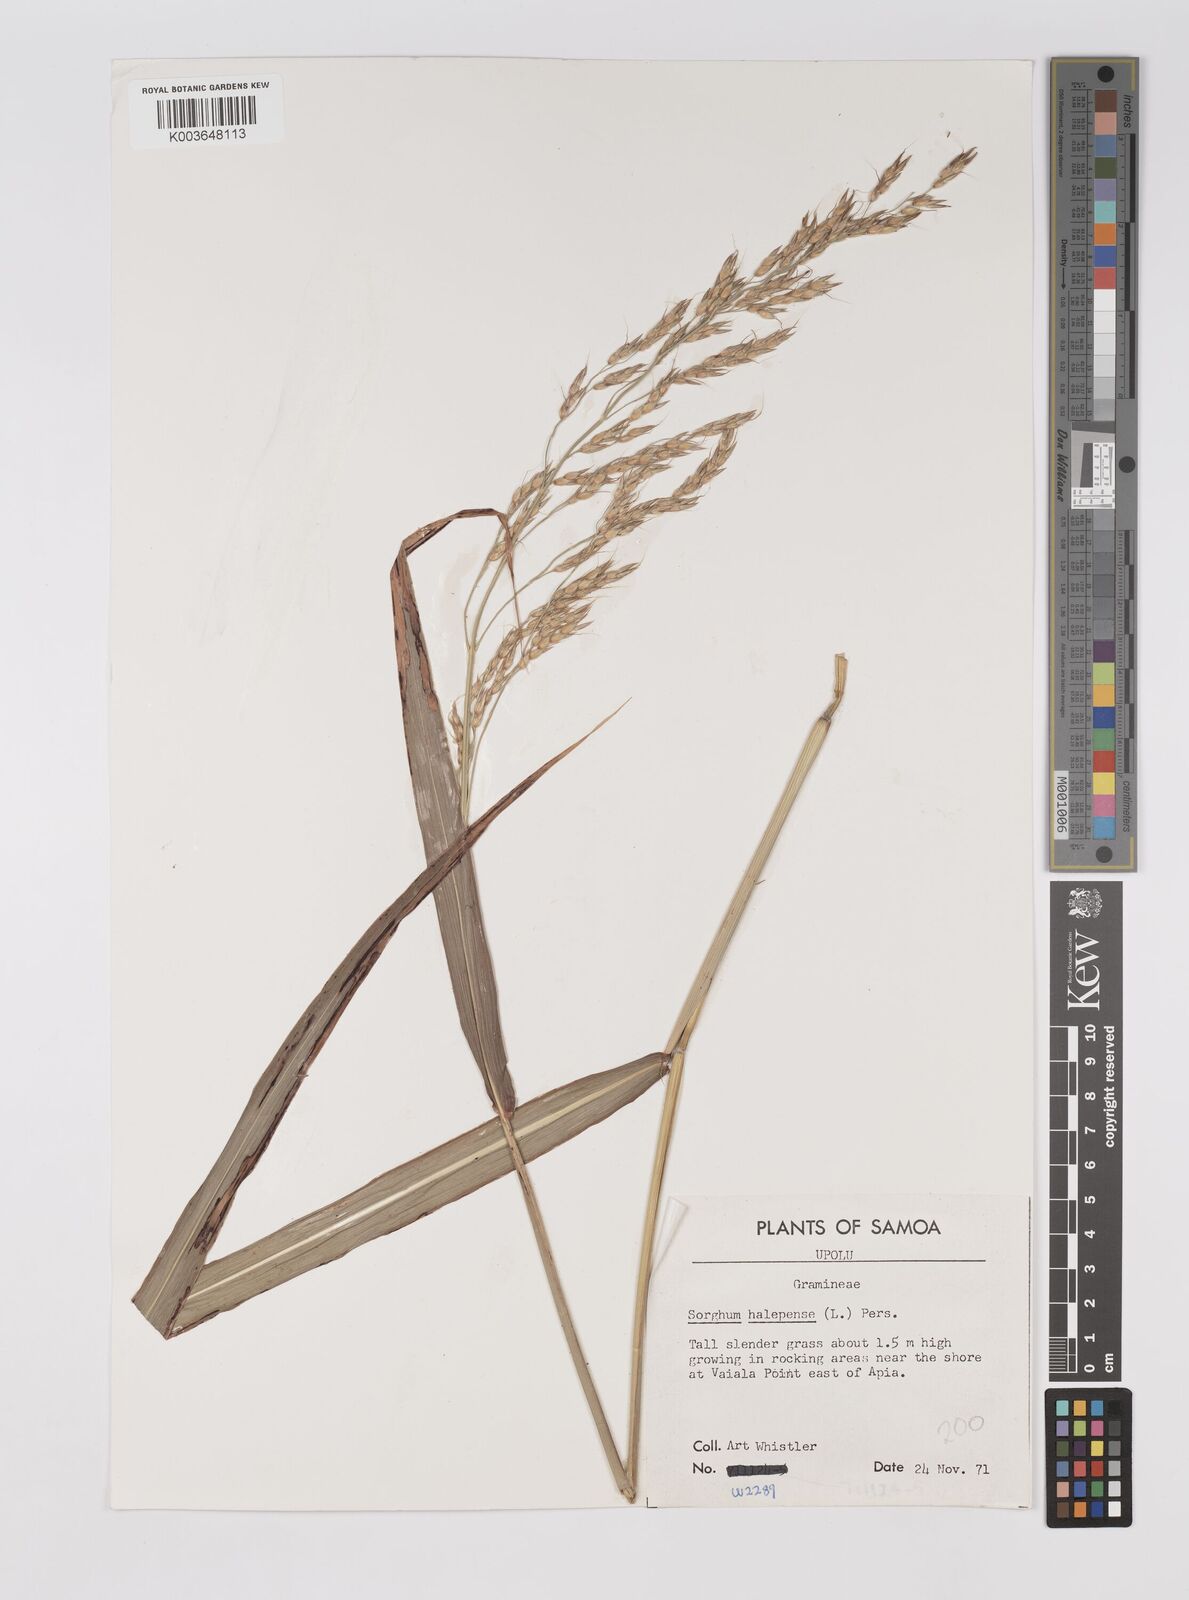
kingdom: Plantae
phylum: Tracheophyta
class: Liliopsida
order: Poales
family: Poaceae
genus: Sorghum
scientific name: Sorghum arundinaceum
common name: Sorghum
